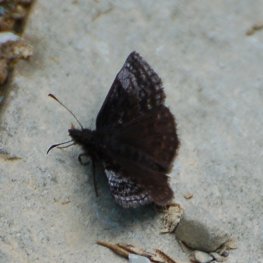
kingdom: Animalia
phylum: Arthropoda
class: Insecta
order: Lepidoptera
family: Hesperiidae
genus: Erynnis
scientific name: Erynnis icelus
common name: Dreamy Duskywing
